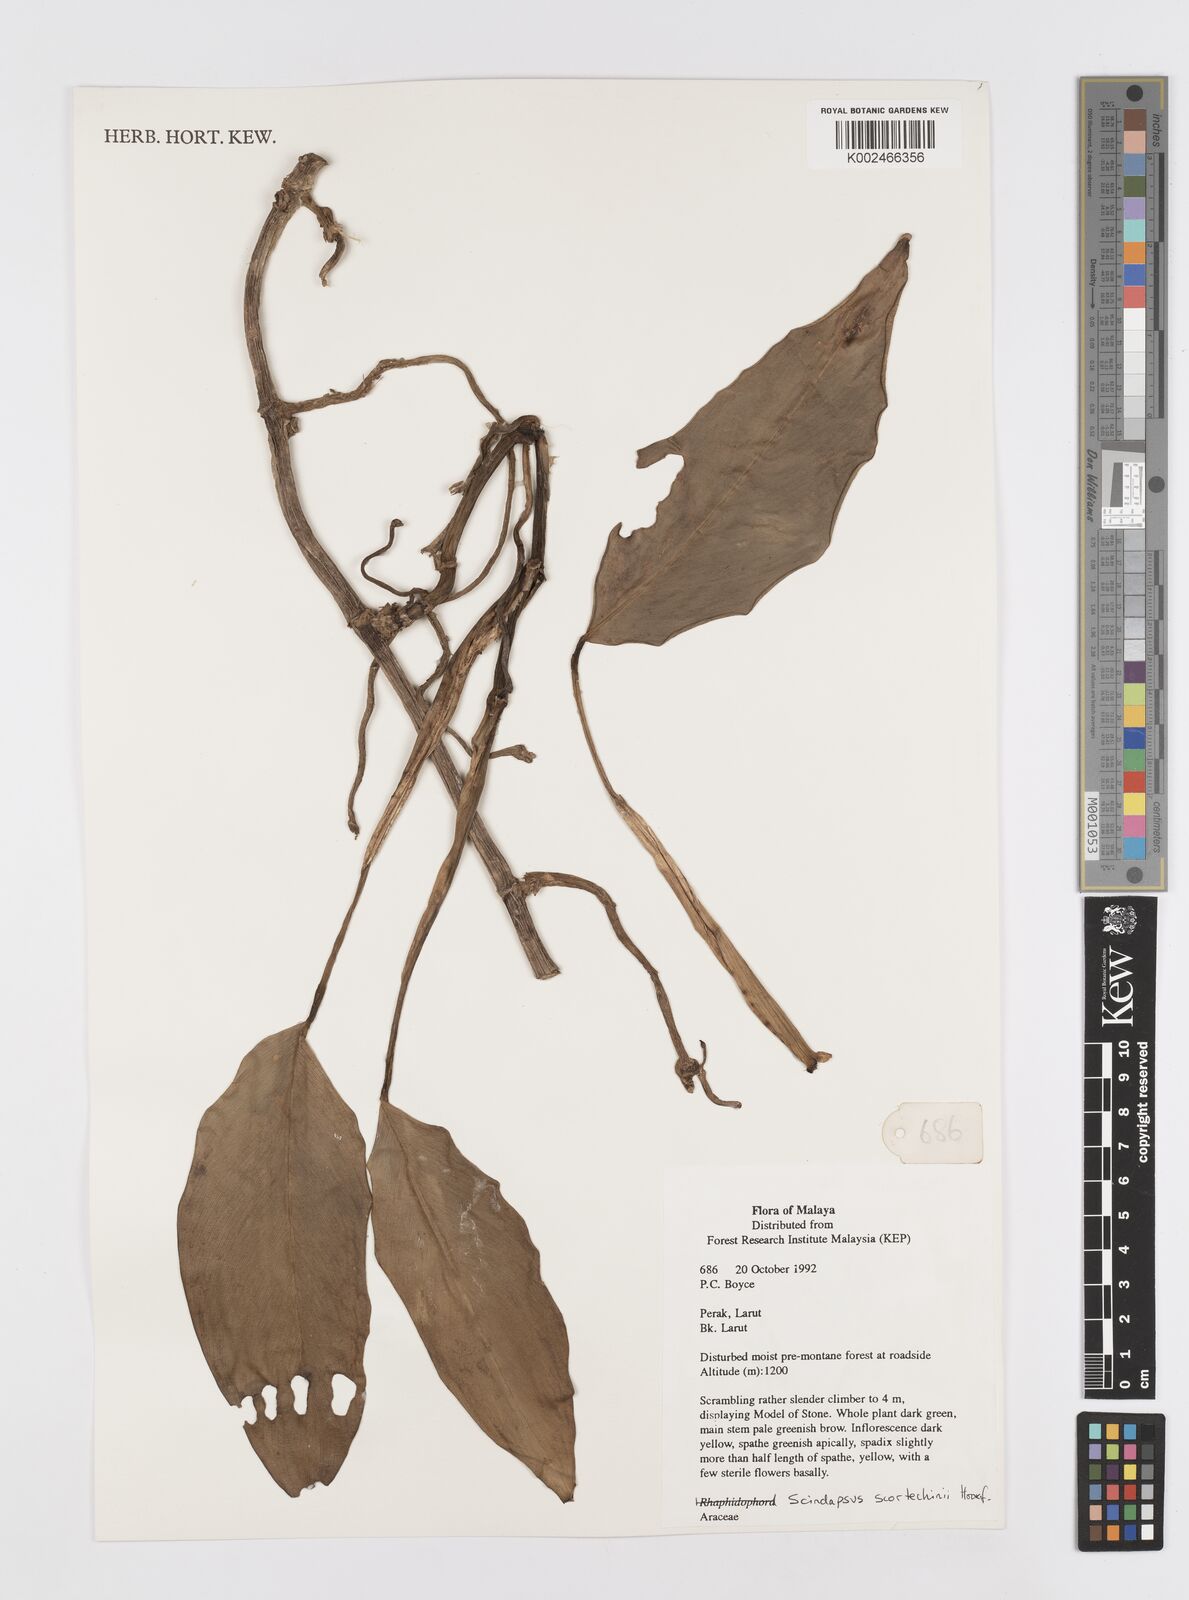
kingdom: Plantae
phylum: Tracheophyta
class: Liliopsida
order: Alismatales
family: Araceae
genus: Scindapsus
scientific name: Scindapsus scortechinii
